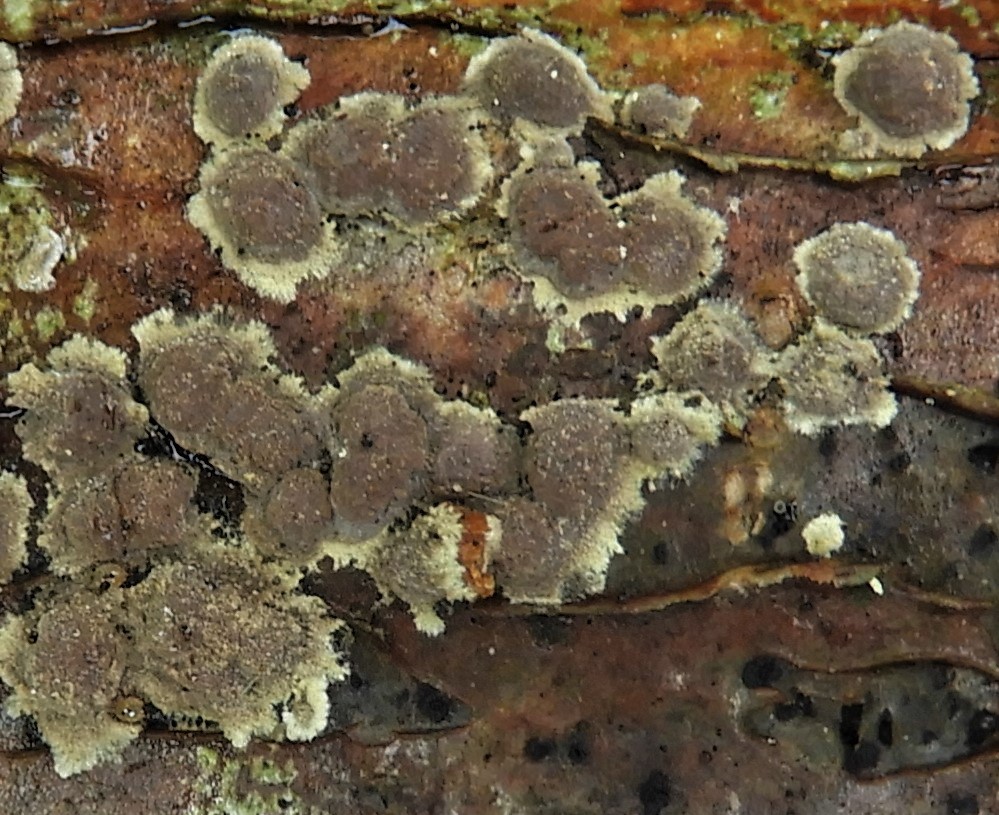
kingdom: Fungi
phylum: Ascomycota
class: Sordariomycetes
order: Xylariales
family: Hypoxylaceae
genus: Hypoxylon
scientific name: Hypoxylon
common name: kulbær
